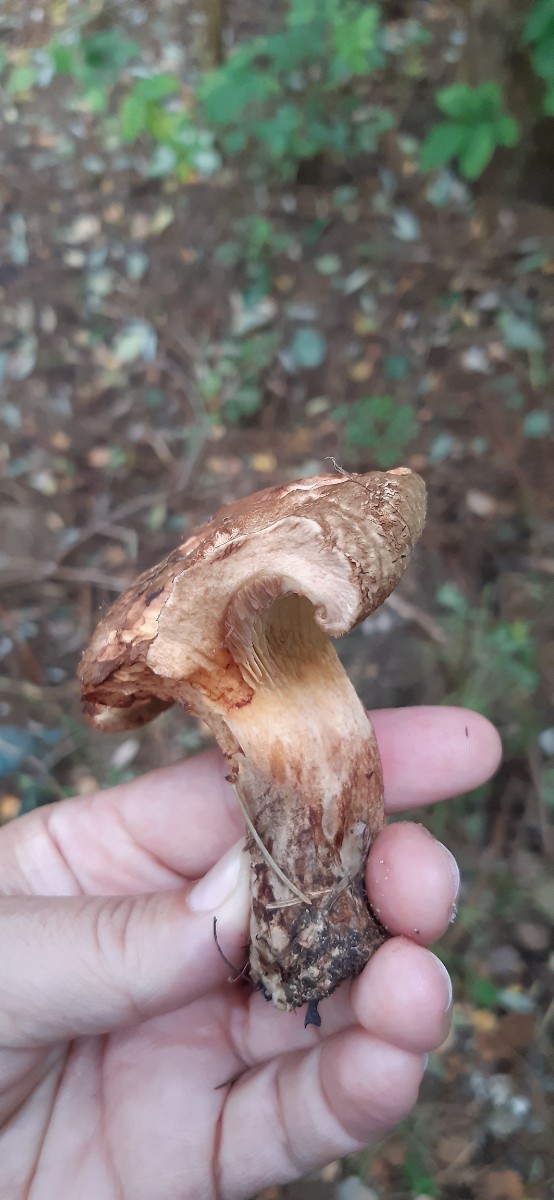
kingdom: Fungi
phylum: Basidiomycota
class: Agaricomycetes
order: Boletales
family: Paxillaceae
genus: Paxillus
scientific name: Paxillus
